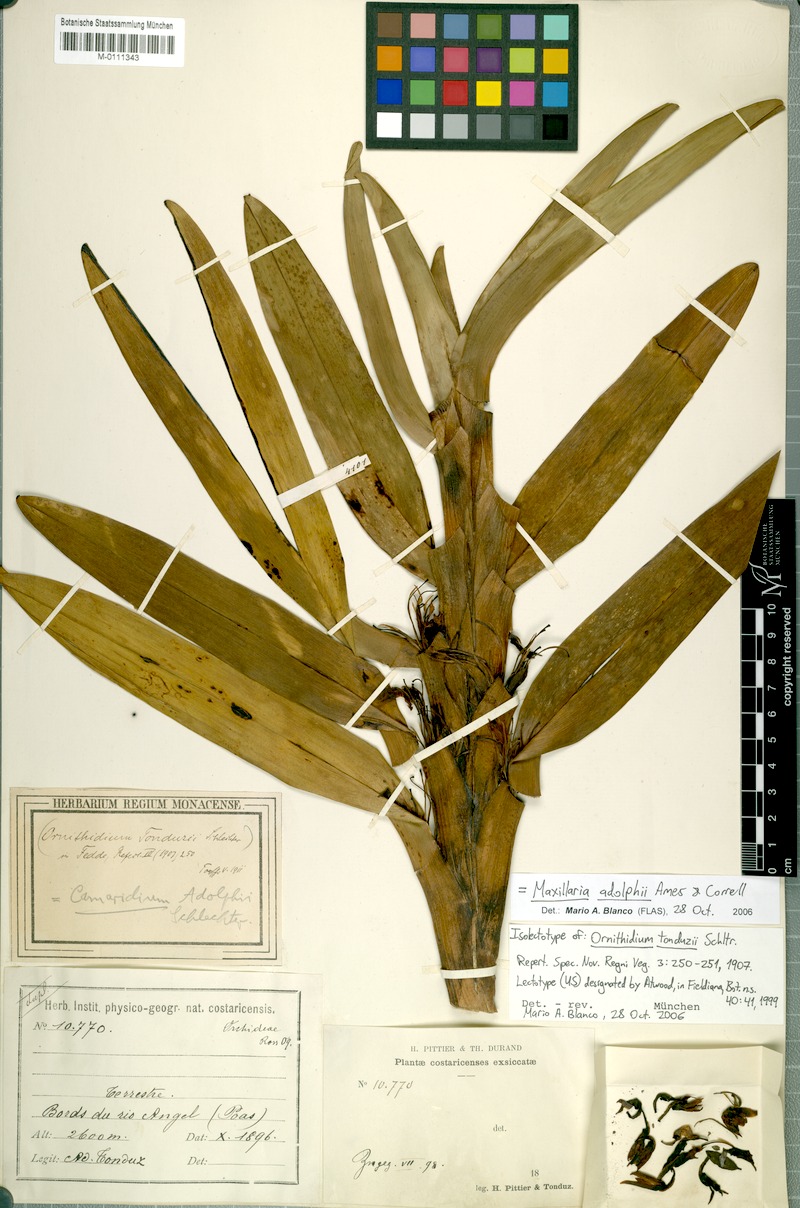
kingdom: Plantae
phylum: Tracheophyta
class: Liliopsida
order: Asparagales
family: Orchidaceae
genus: Maxillaria
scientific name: Maxillaria adolphi
